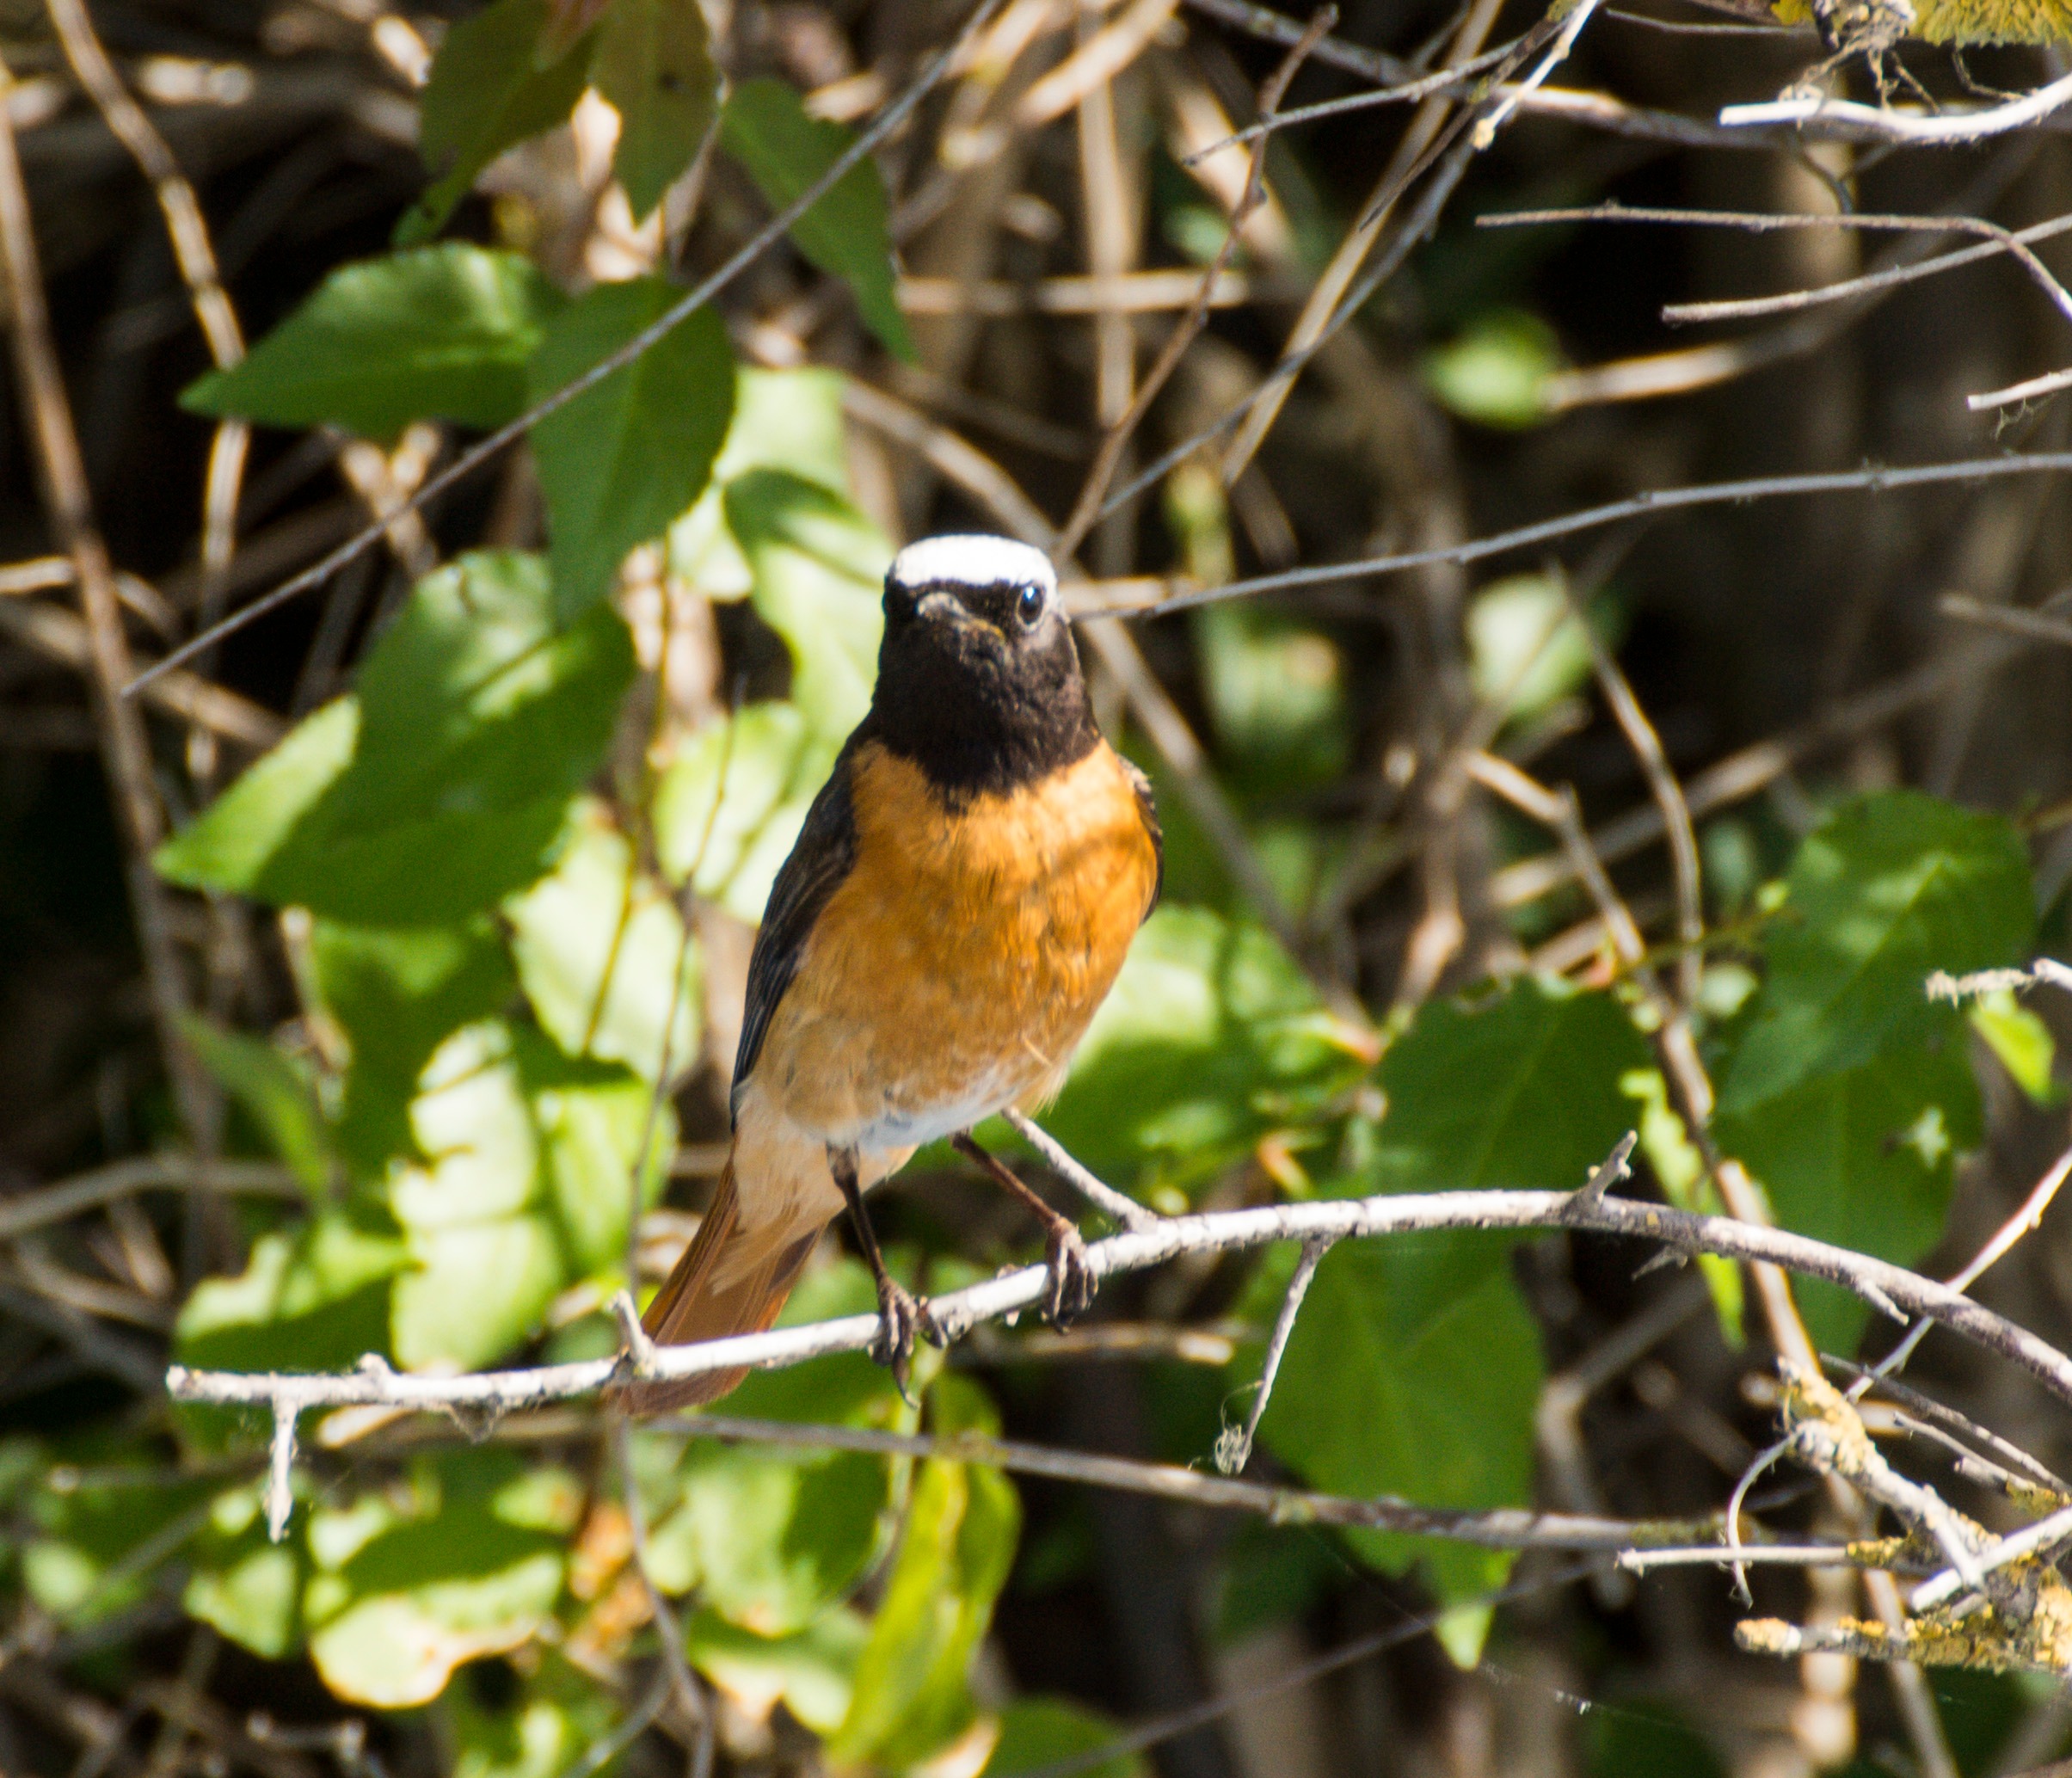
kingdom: Animalia
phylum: Chordata
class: Aves
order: Passeriformes
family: Muscicapidae
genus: Phoenicurus
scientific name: Phoenicurus phoenicurus
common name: Rødstjert
